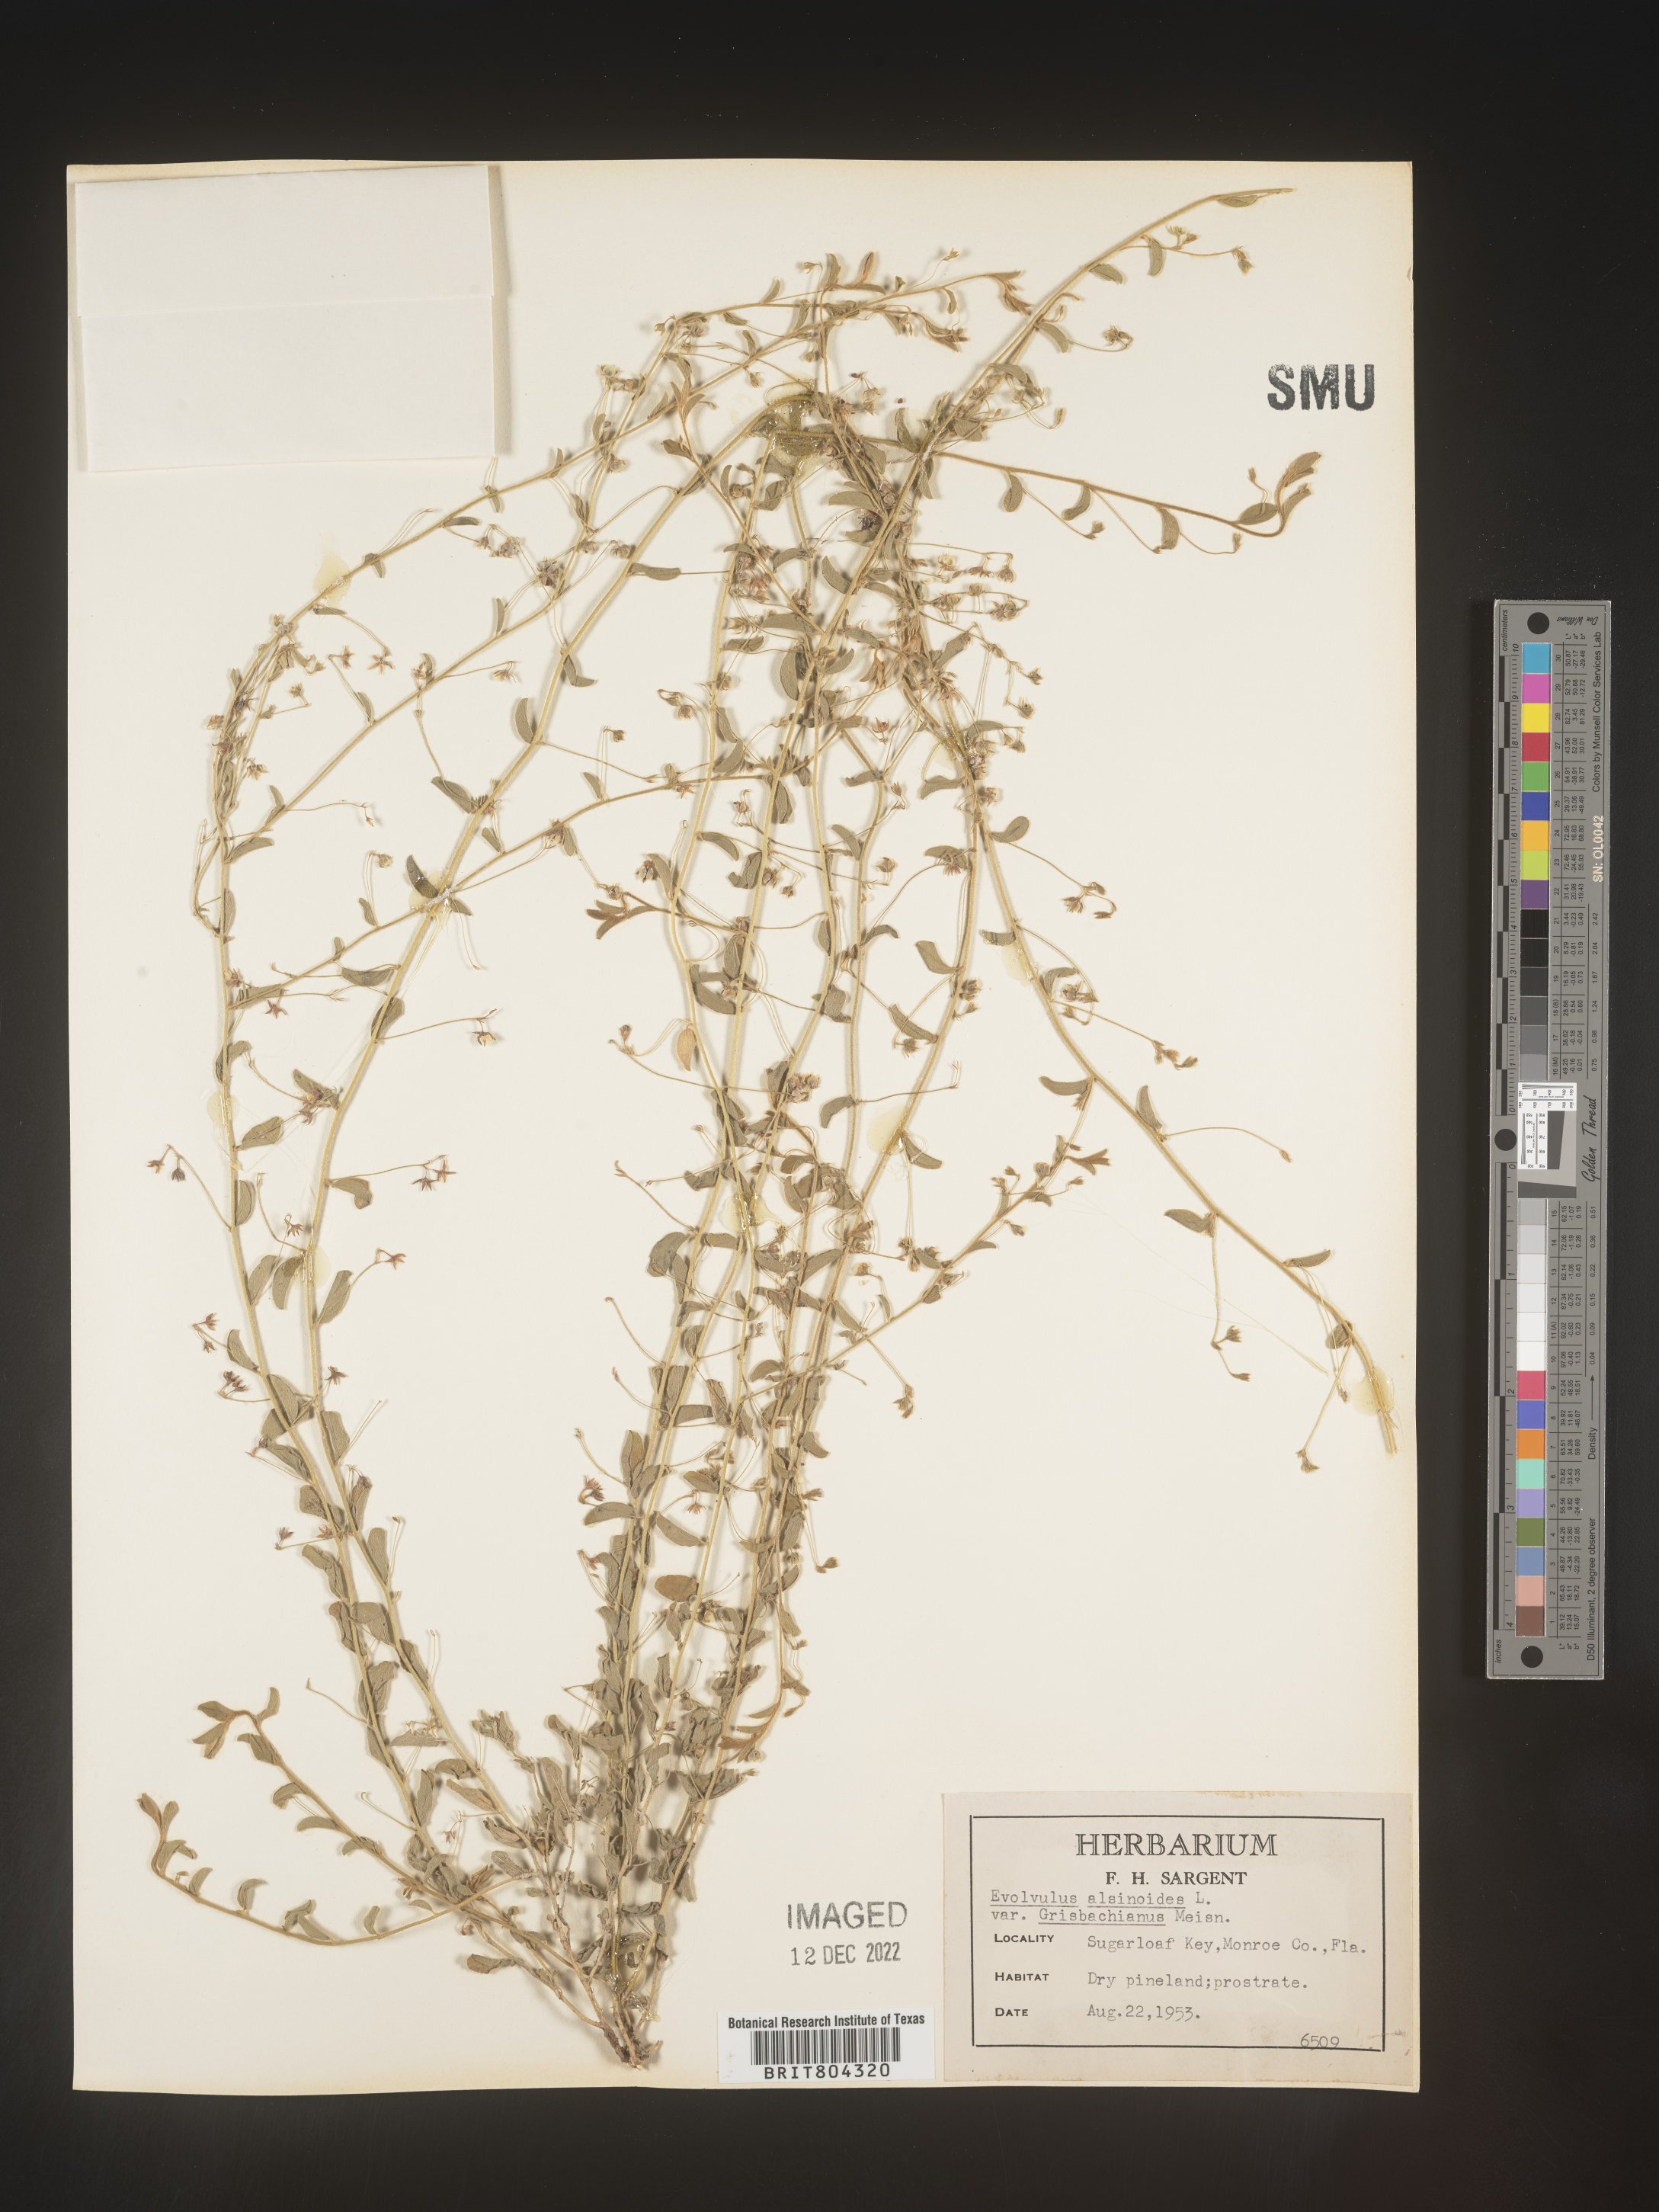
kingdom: Plantae
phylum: Tracheophyta
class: Magnoliopsida
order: Solanales
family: Convolvulaceae
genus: Evolvulus
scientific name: Evolvulus alsinoides
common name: Slender dwarf morning-glory
